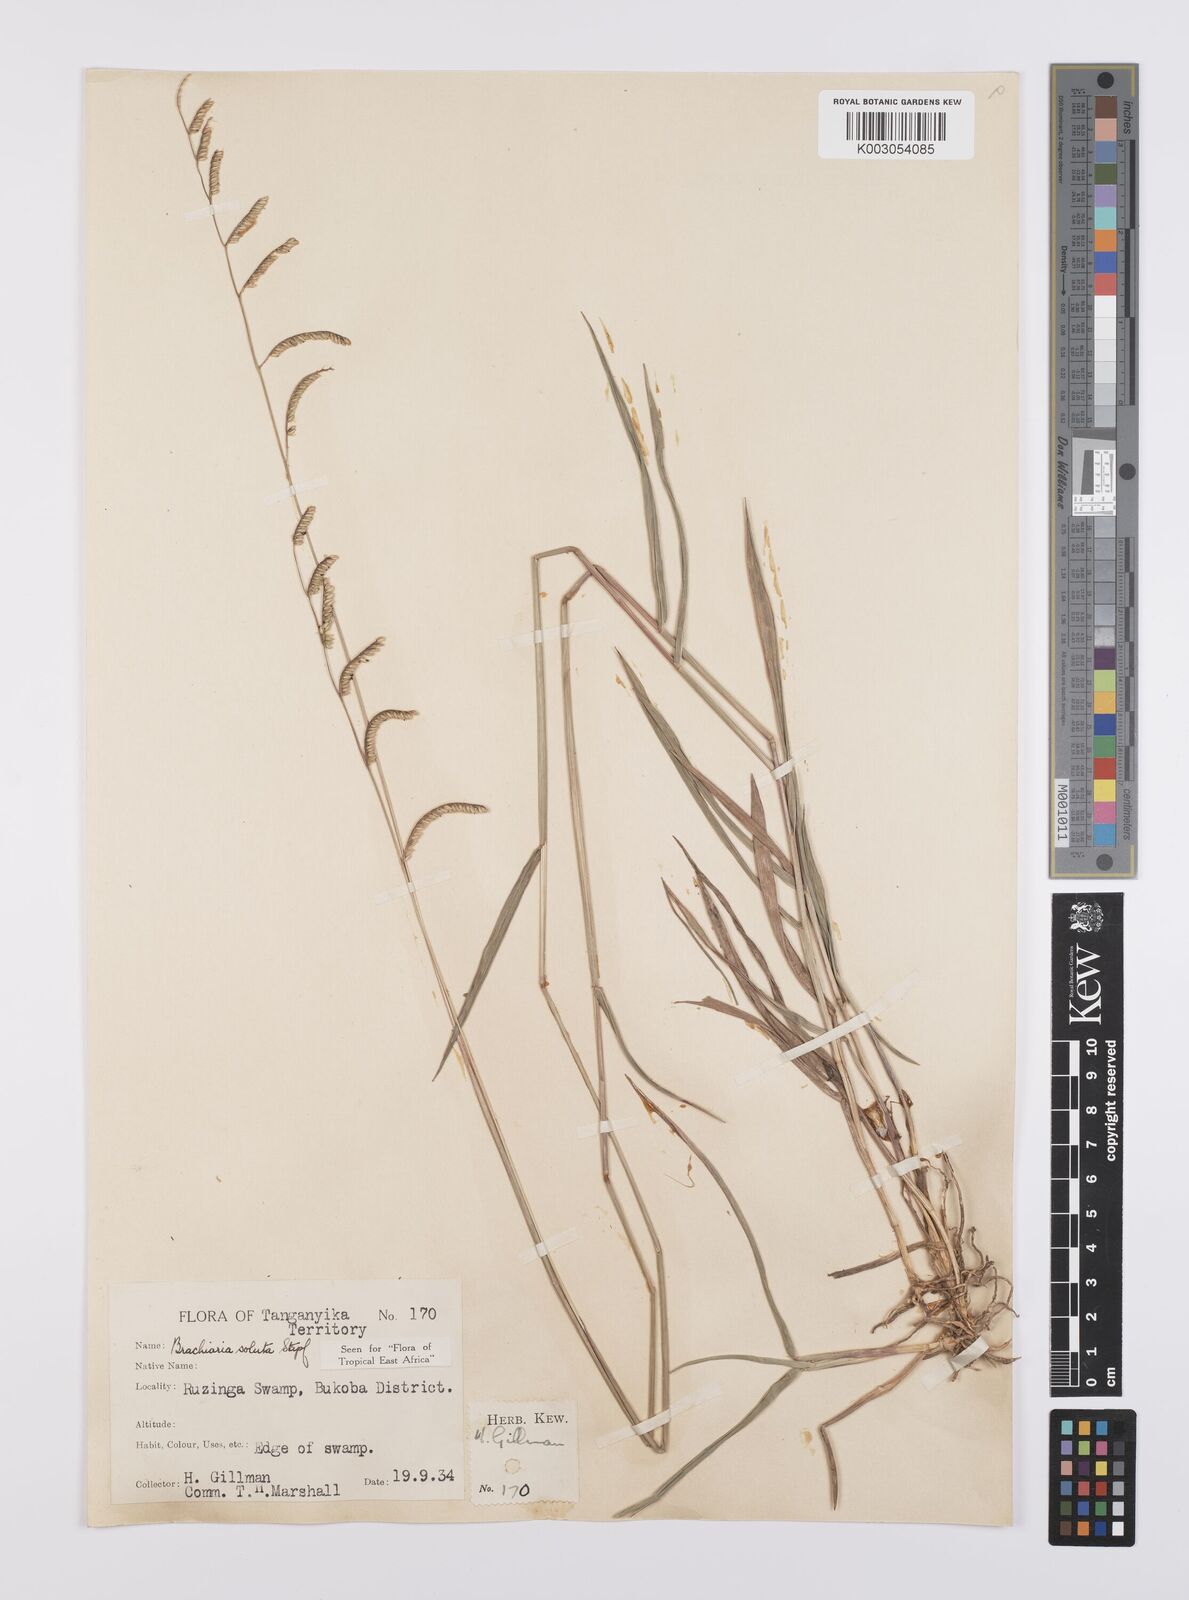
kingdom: Plantae
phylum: Tracheophyta
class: Liliopsida
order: Poales
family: Poaceae
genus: Urochloa
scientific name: Urochloa jubata
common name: Buffalograss
